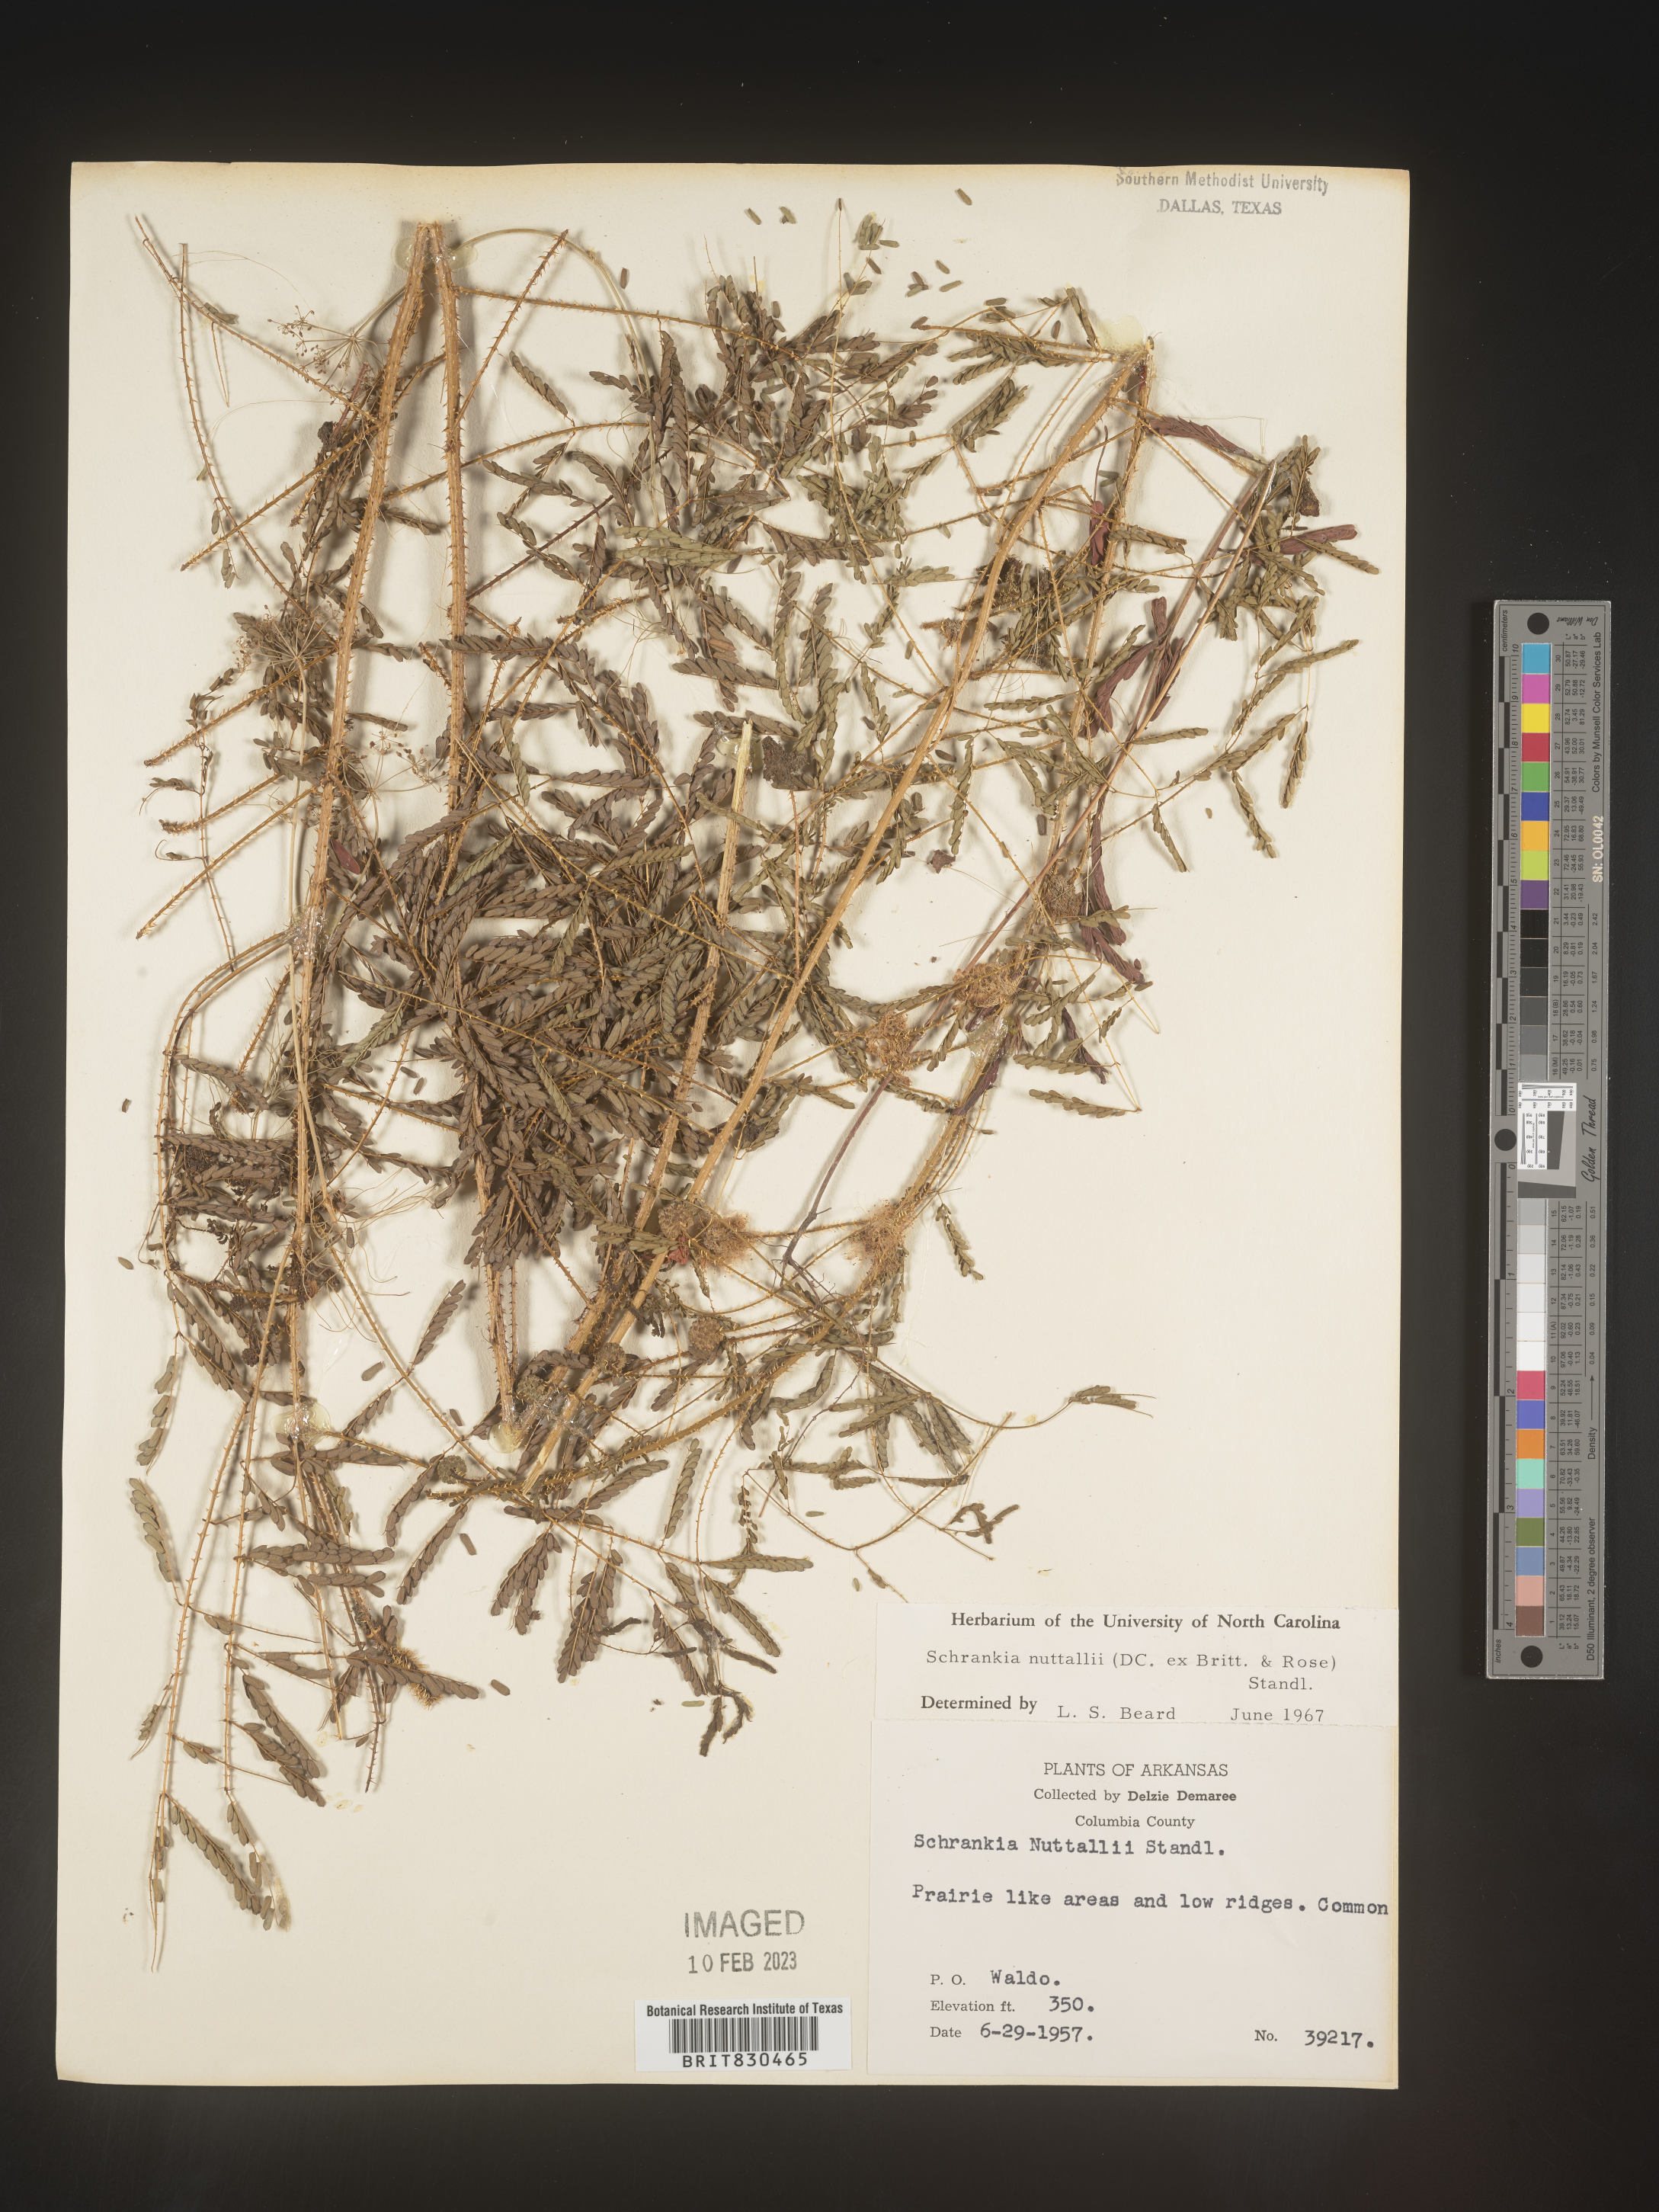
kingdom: Plantae
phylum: Tracheophyta
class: Magnoliopsida
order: Fabales
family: Fabaceae
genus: Mimosa
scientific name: Mimosa quadrivalvis
